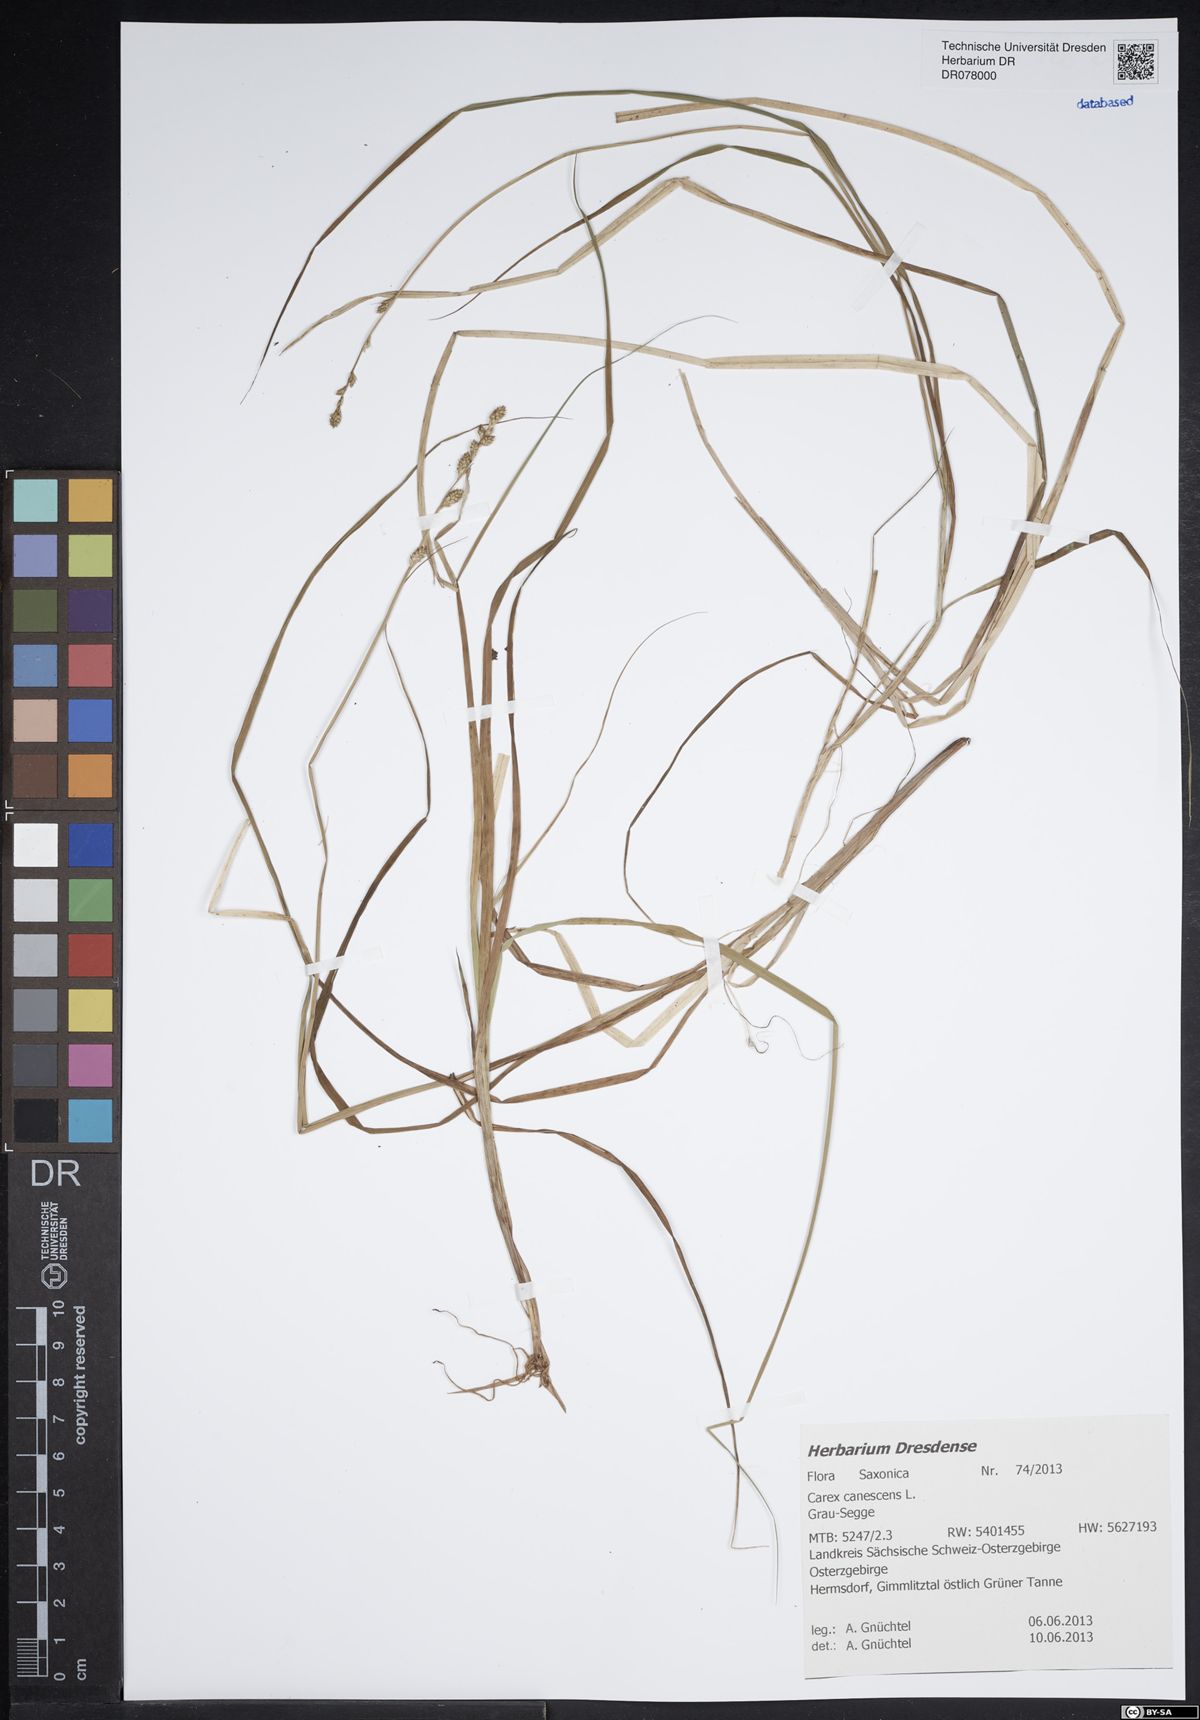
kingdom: Plantae
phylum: Tracheophyta
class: Liliopsida
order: Poales
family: Cyperaceae
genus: Carex
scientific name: Carex canescens
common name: White sedge
